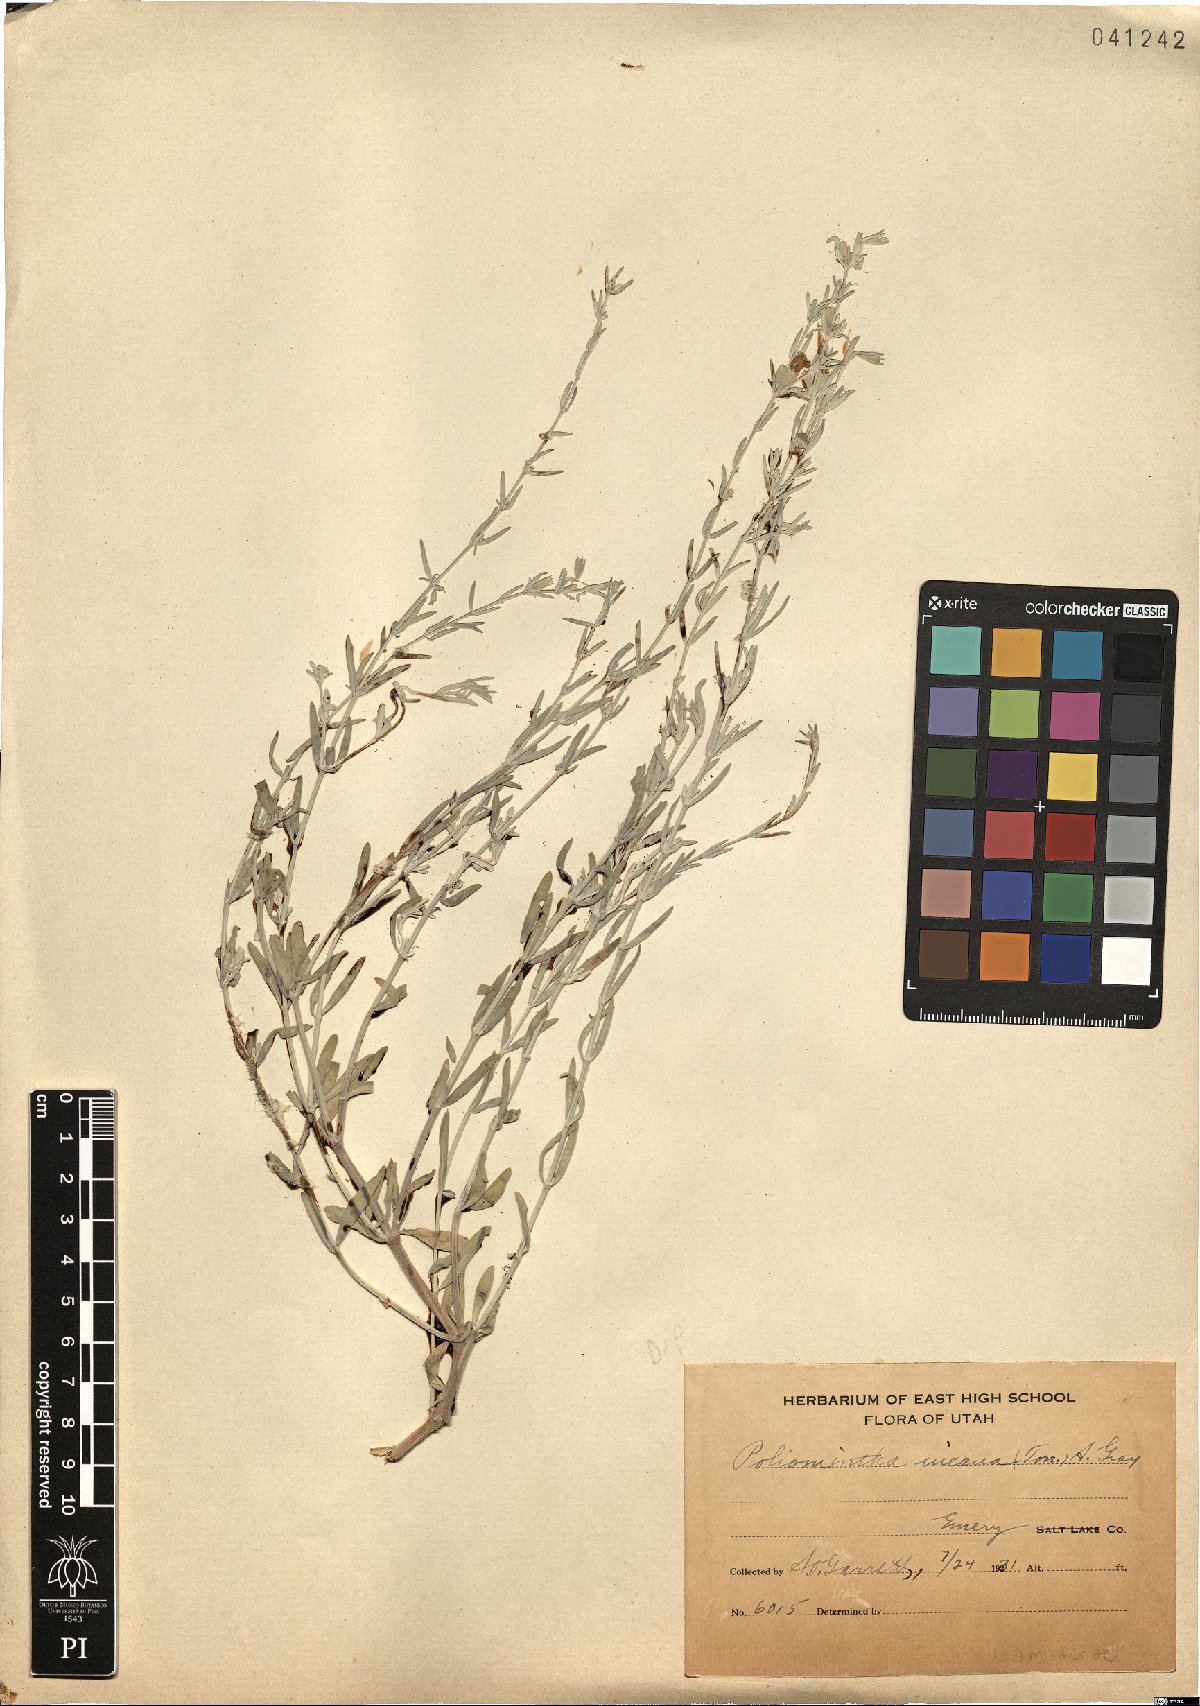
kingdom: Plantae
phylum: Tracheophyta
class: Magnoliopsida
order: Lamiales
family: Lamiaceae
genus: Poliomintha
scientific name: Poliomintha incana
